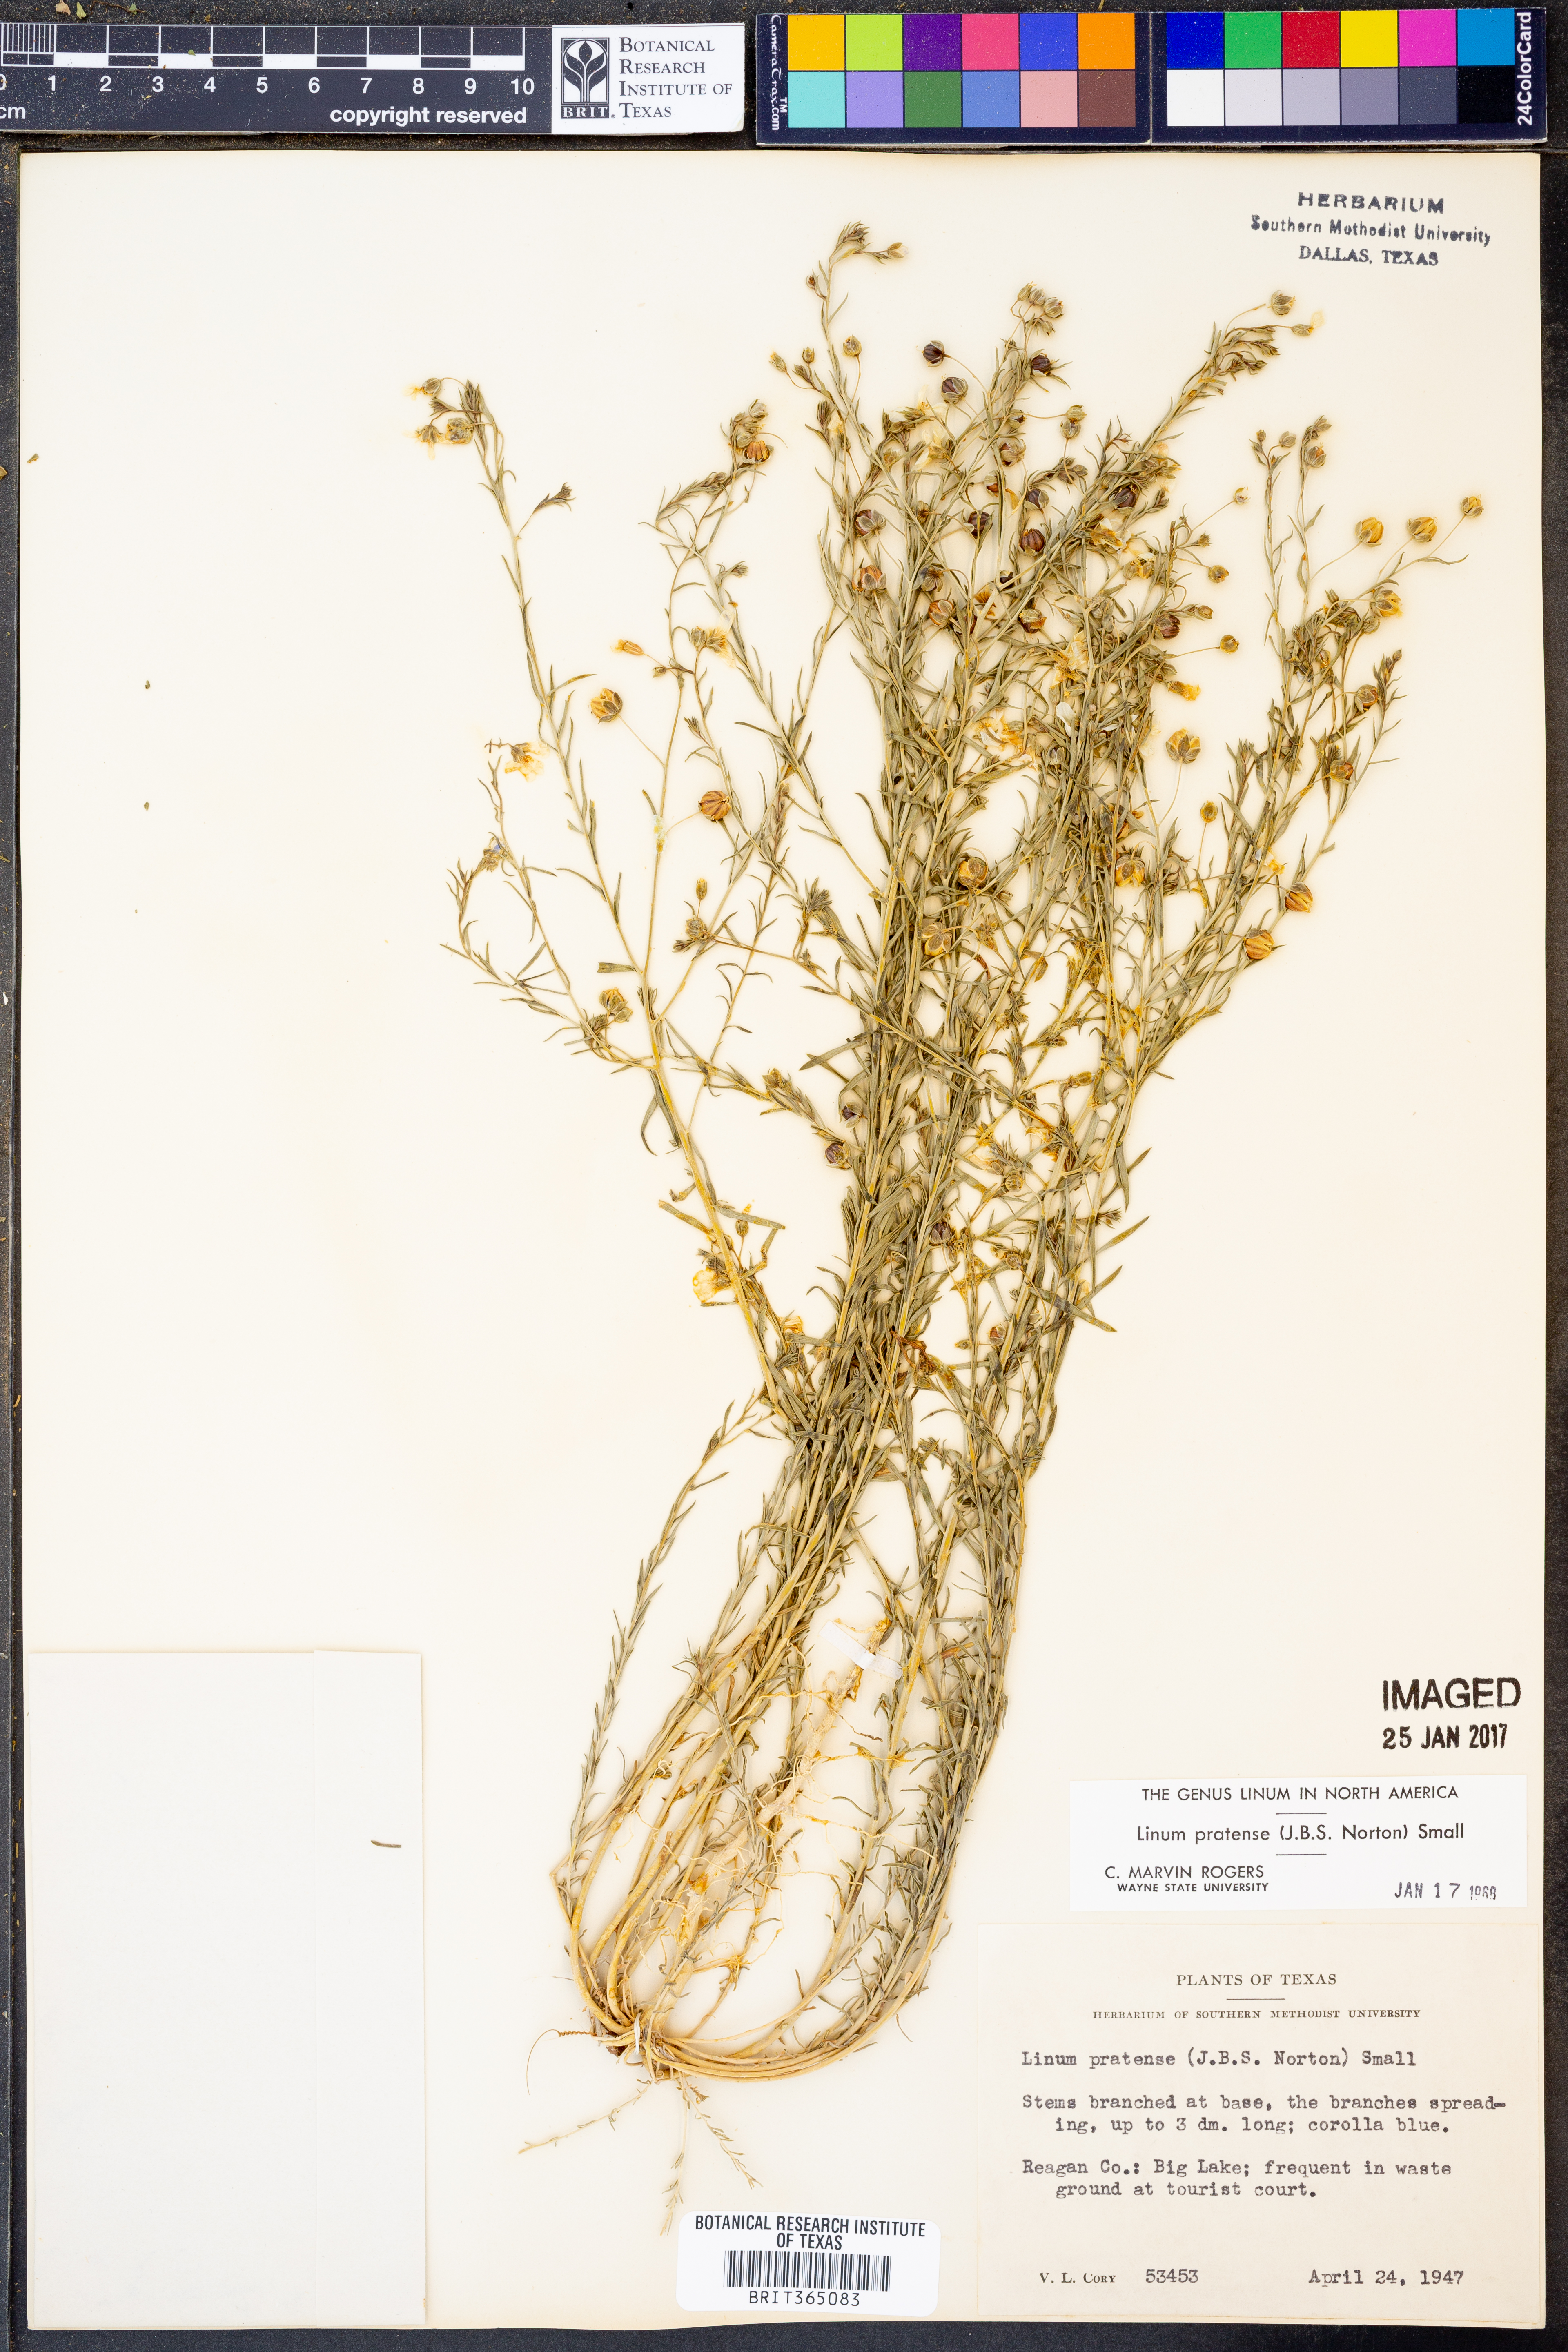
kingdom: Plantae
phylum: Tracheophyta
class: Magnoliopsida
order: Malpighiales
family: Linaceae
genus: Linum
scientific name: Linum pratense
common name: Norton's flax
